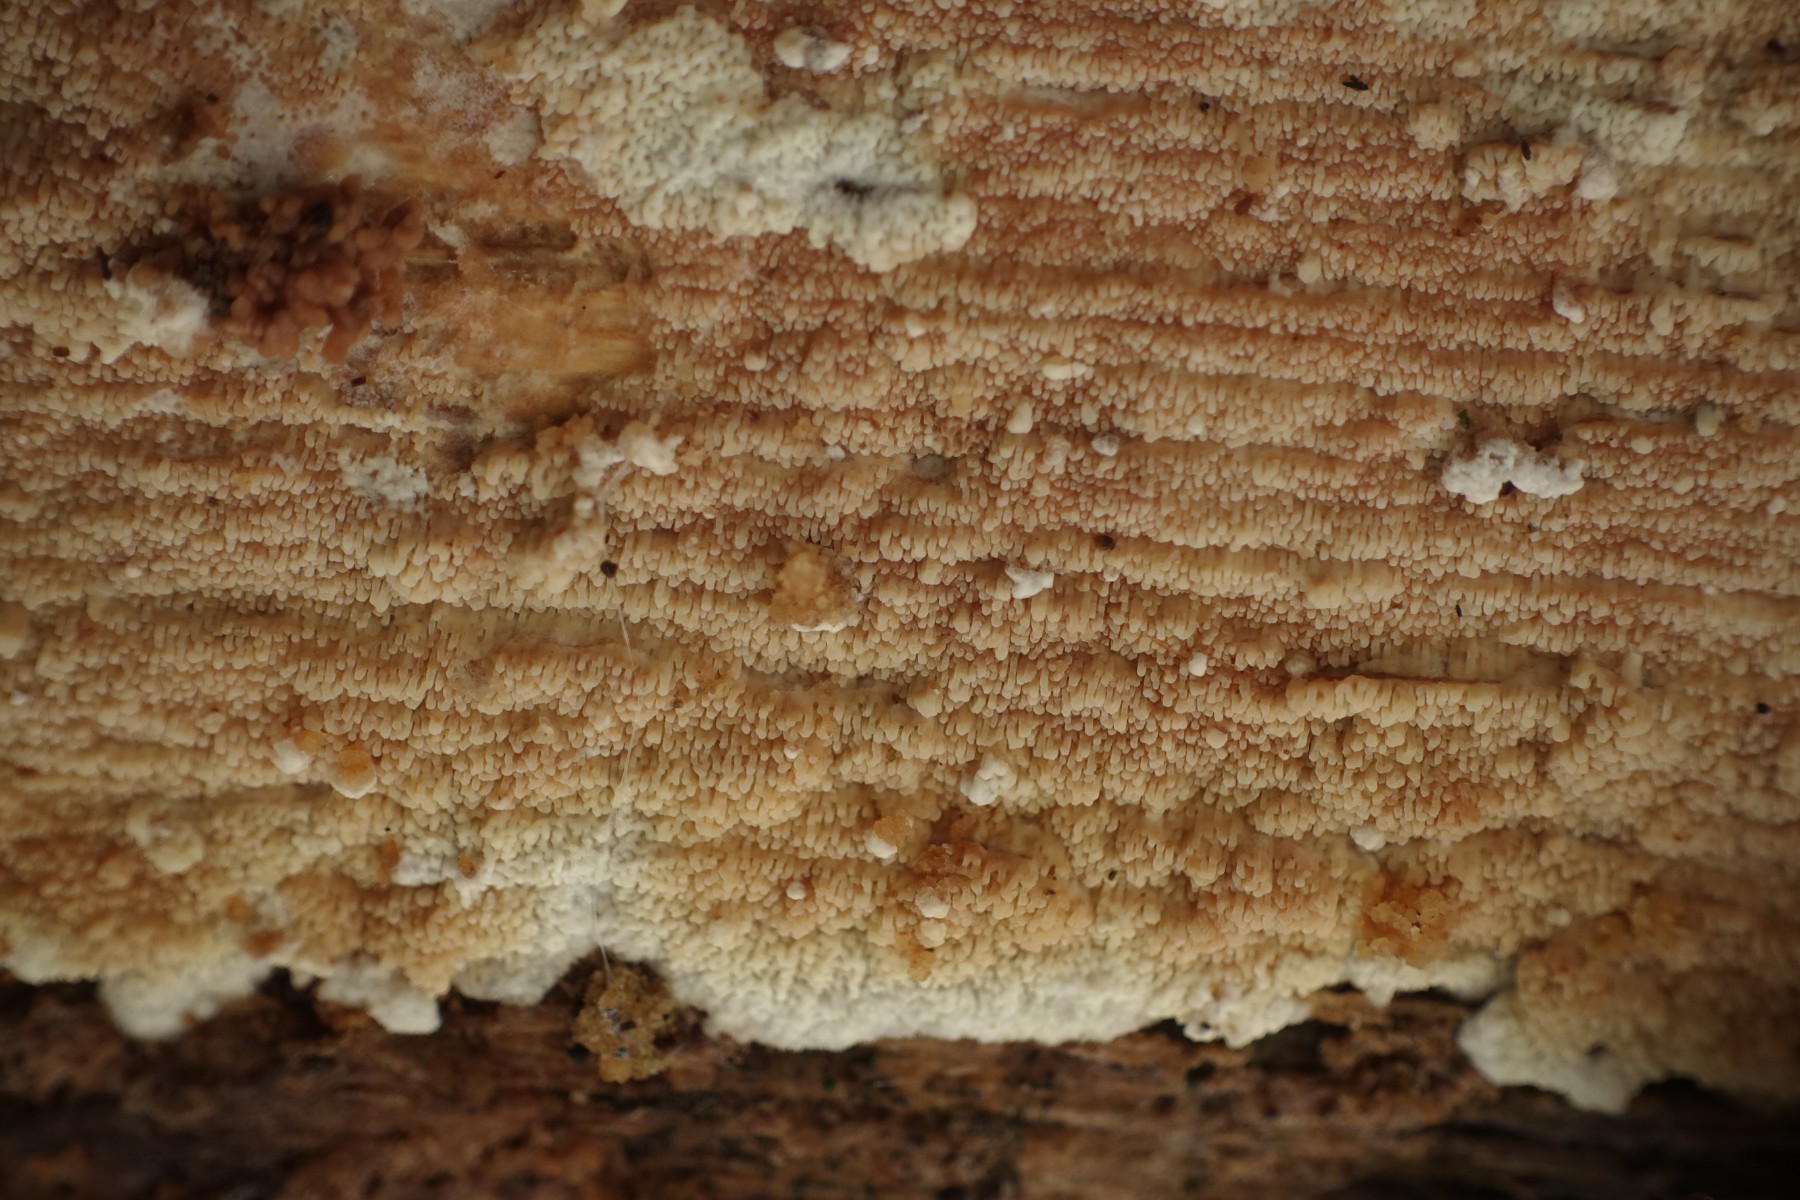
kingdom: Fungi
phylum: Basidiomycota
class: Agaricomycetes
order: Polyporales
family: Meruliaceae
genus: Phlebia
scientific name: Phlebia rufa
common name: ege-åresvamp
